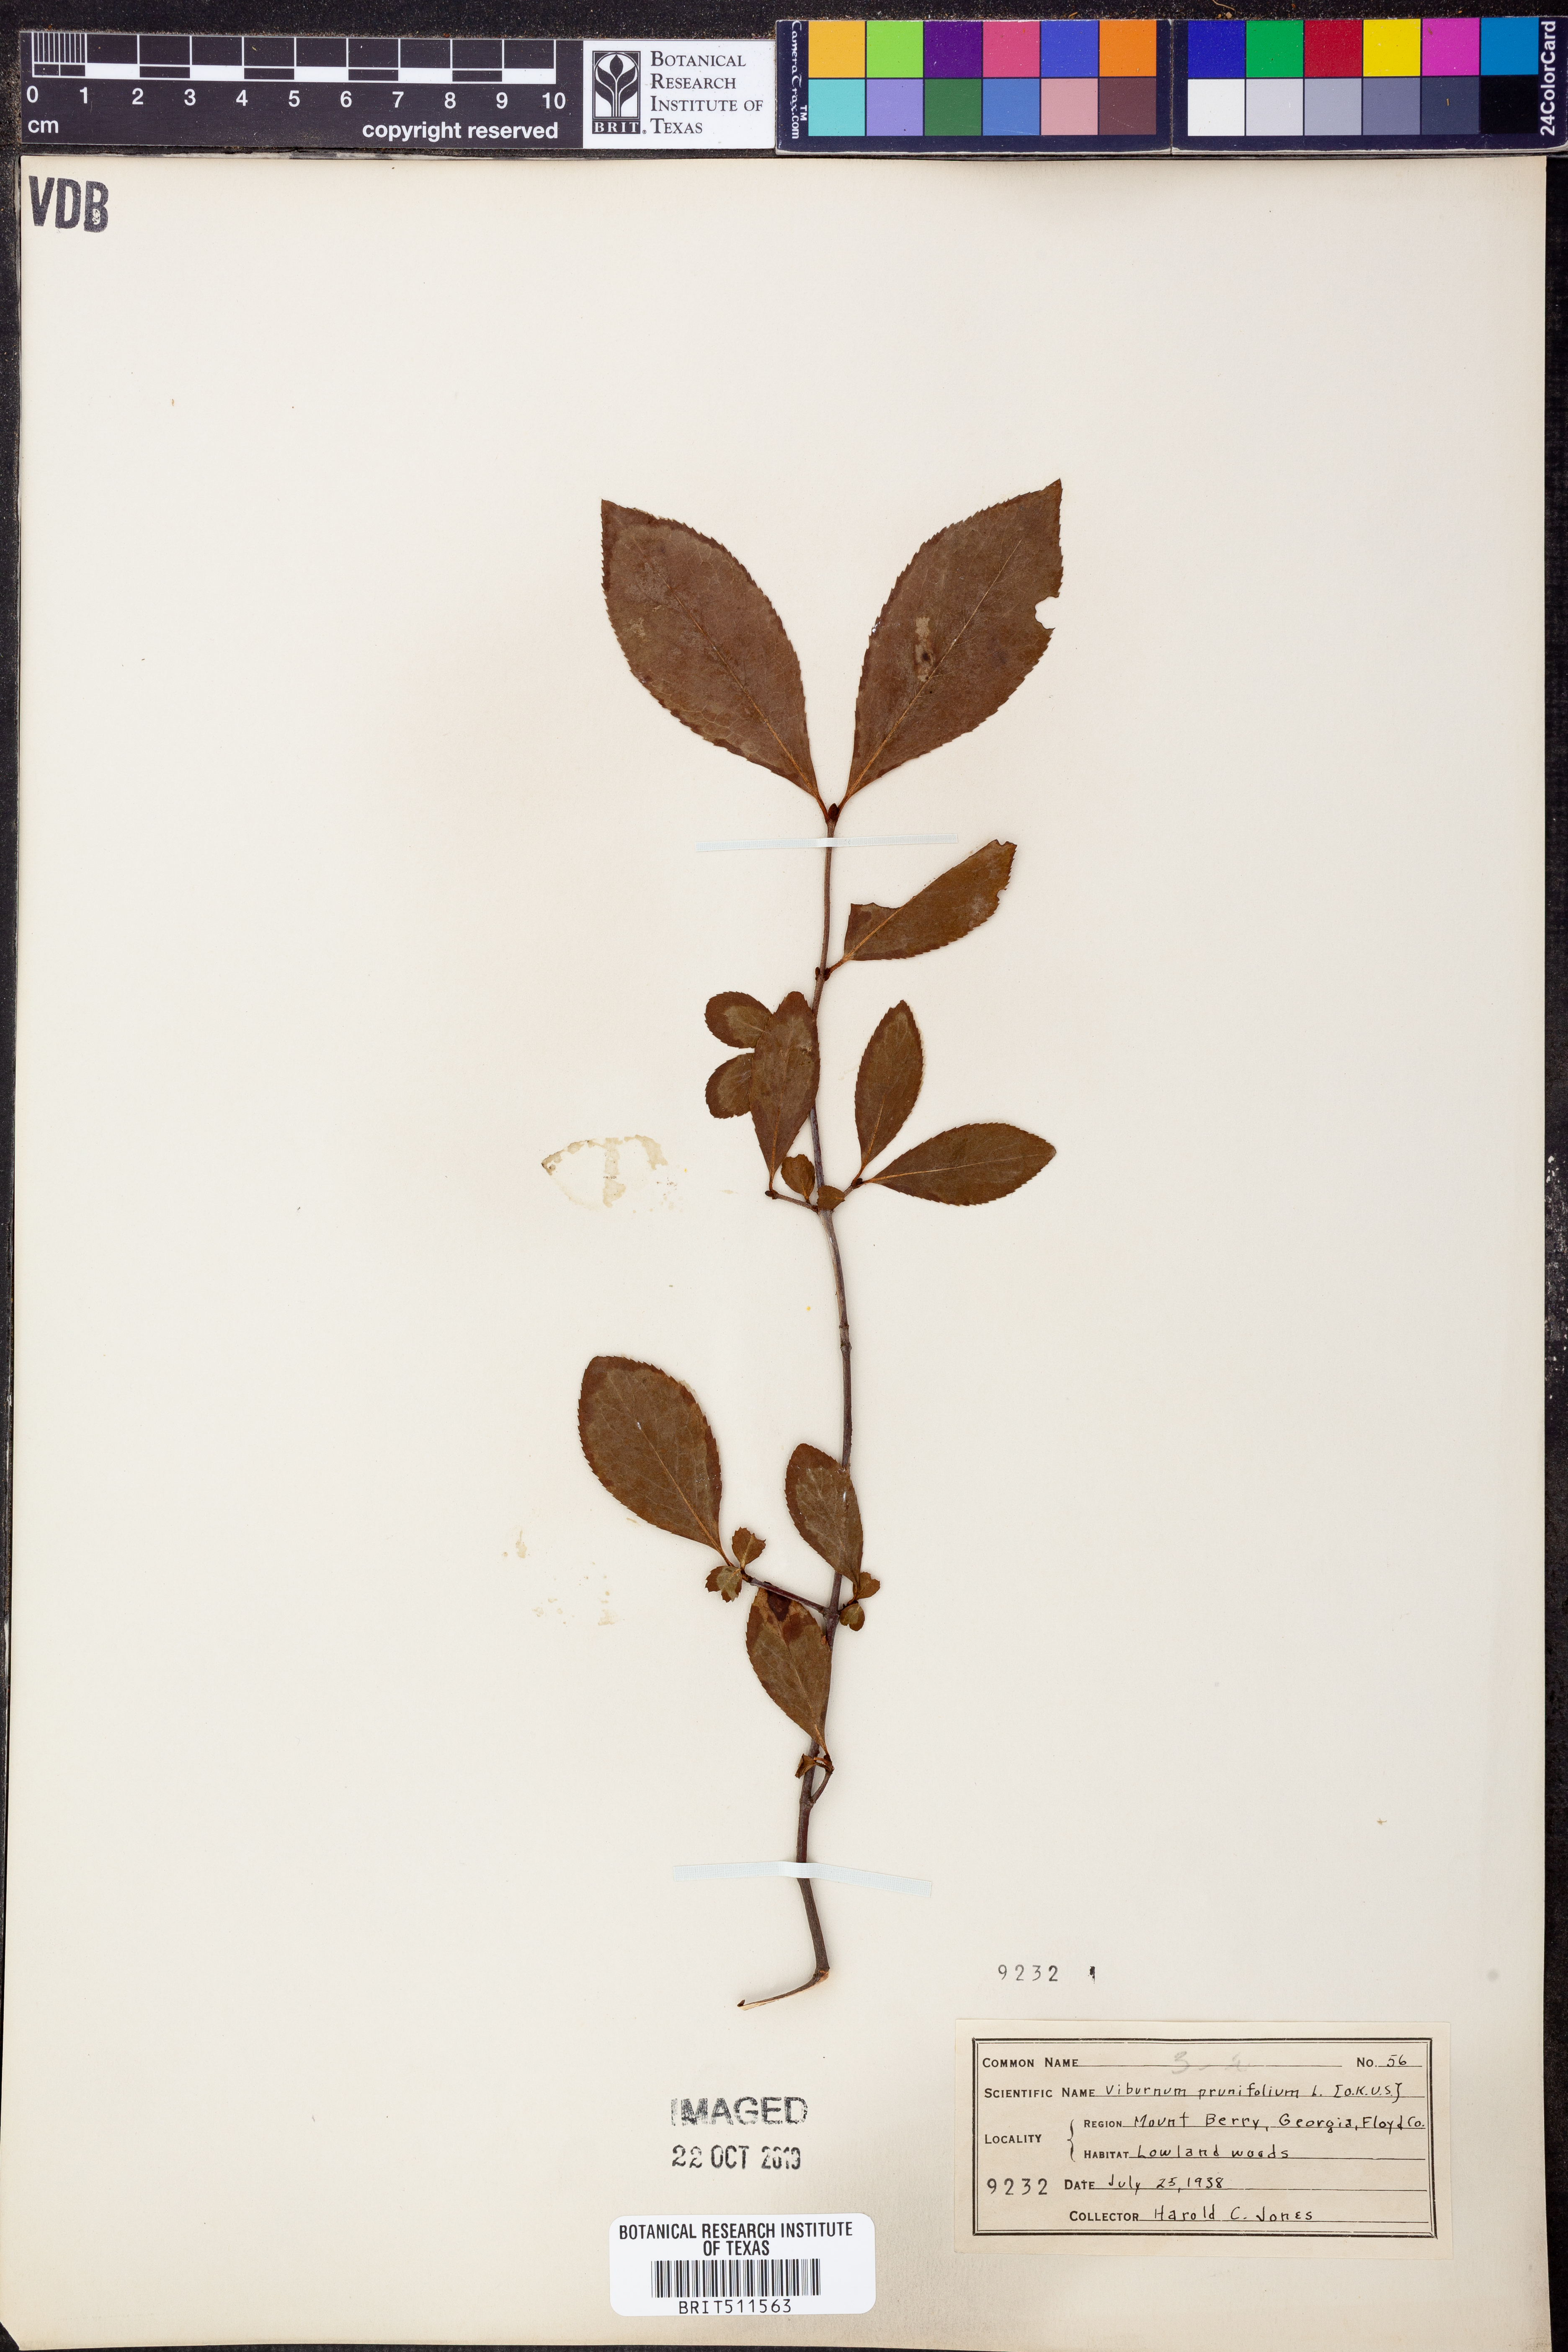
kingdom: Plantae
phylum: Tracheophyta
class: Magnoliopsida
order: Dipsacales
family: Viburnaceae
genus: Viburnum
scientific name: Viburnum prunifolium
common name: Black haw
